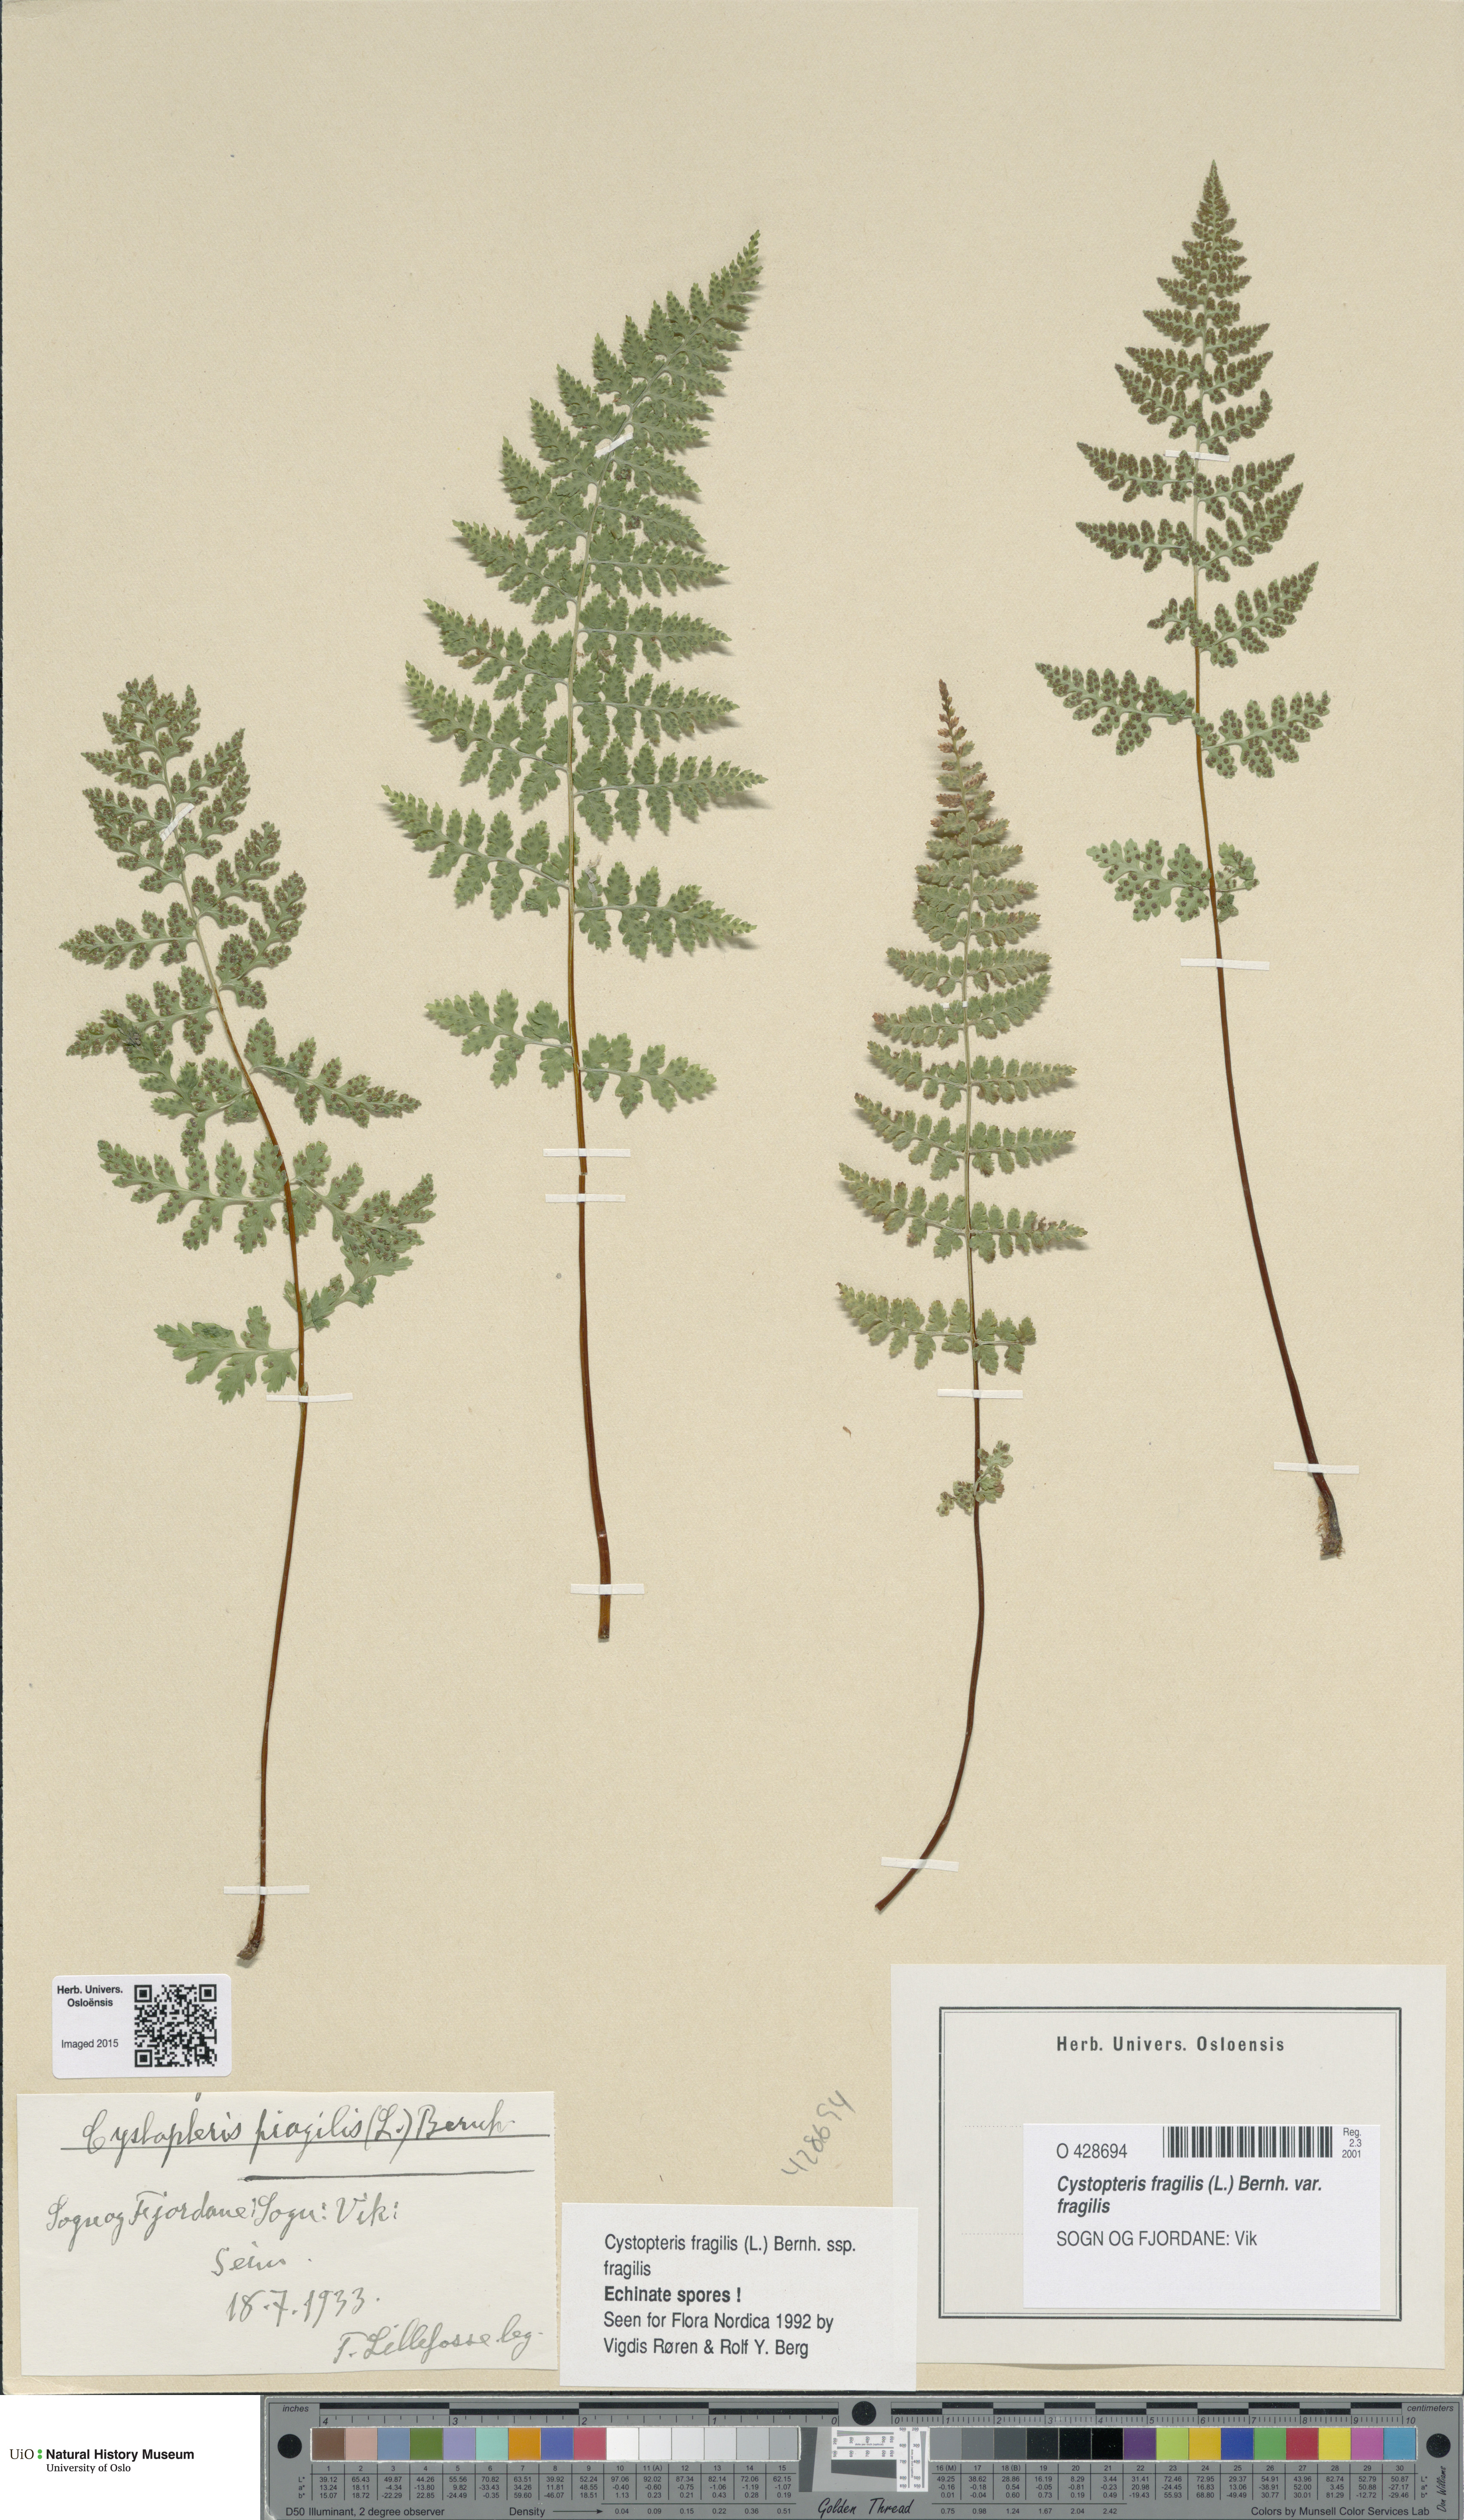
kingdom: Plantae
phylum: Tracheophyta
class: Polypodiopsida
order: Polypodiales
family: Cystopteridaceae
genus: Cystopteris
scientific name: Cystopteris fragilis
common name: Brittle bladder fern
